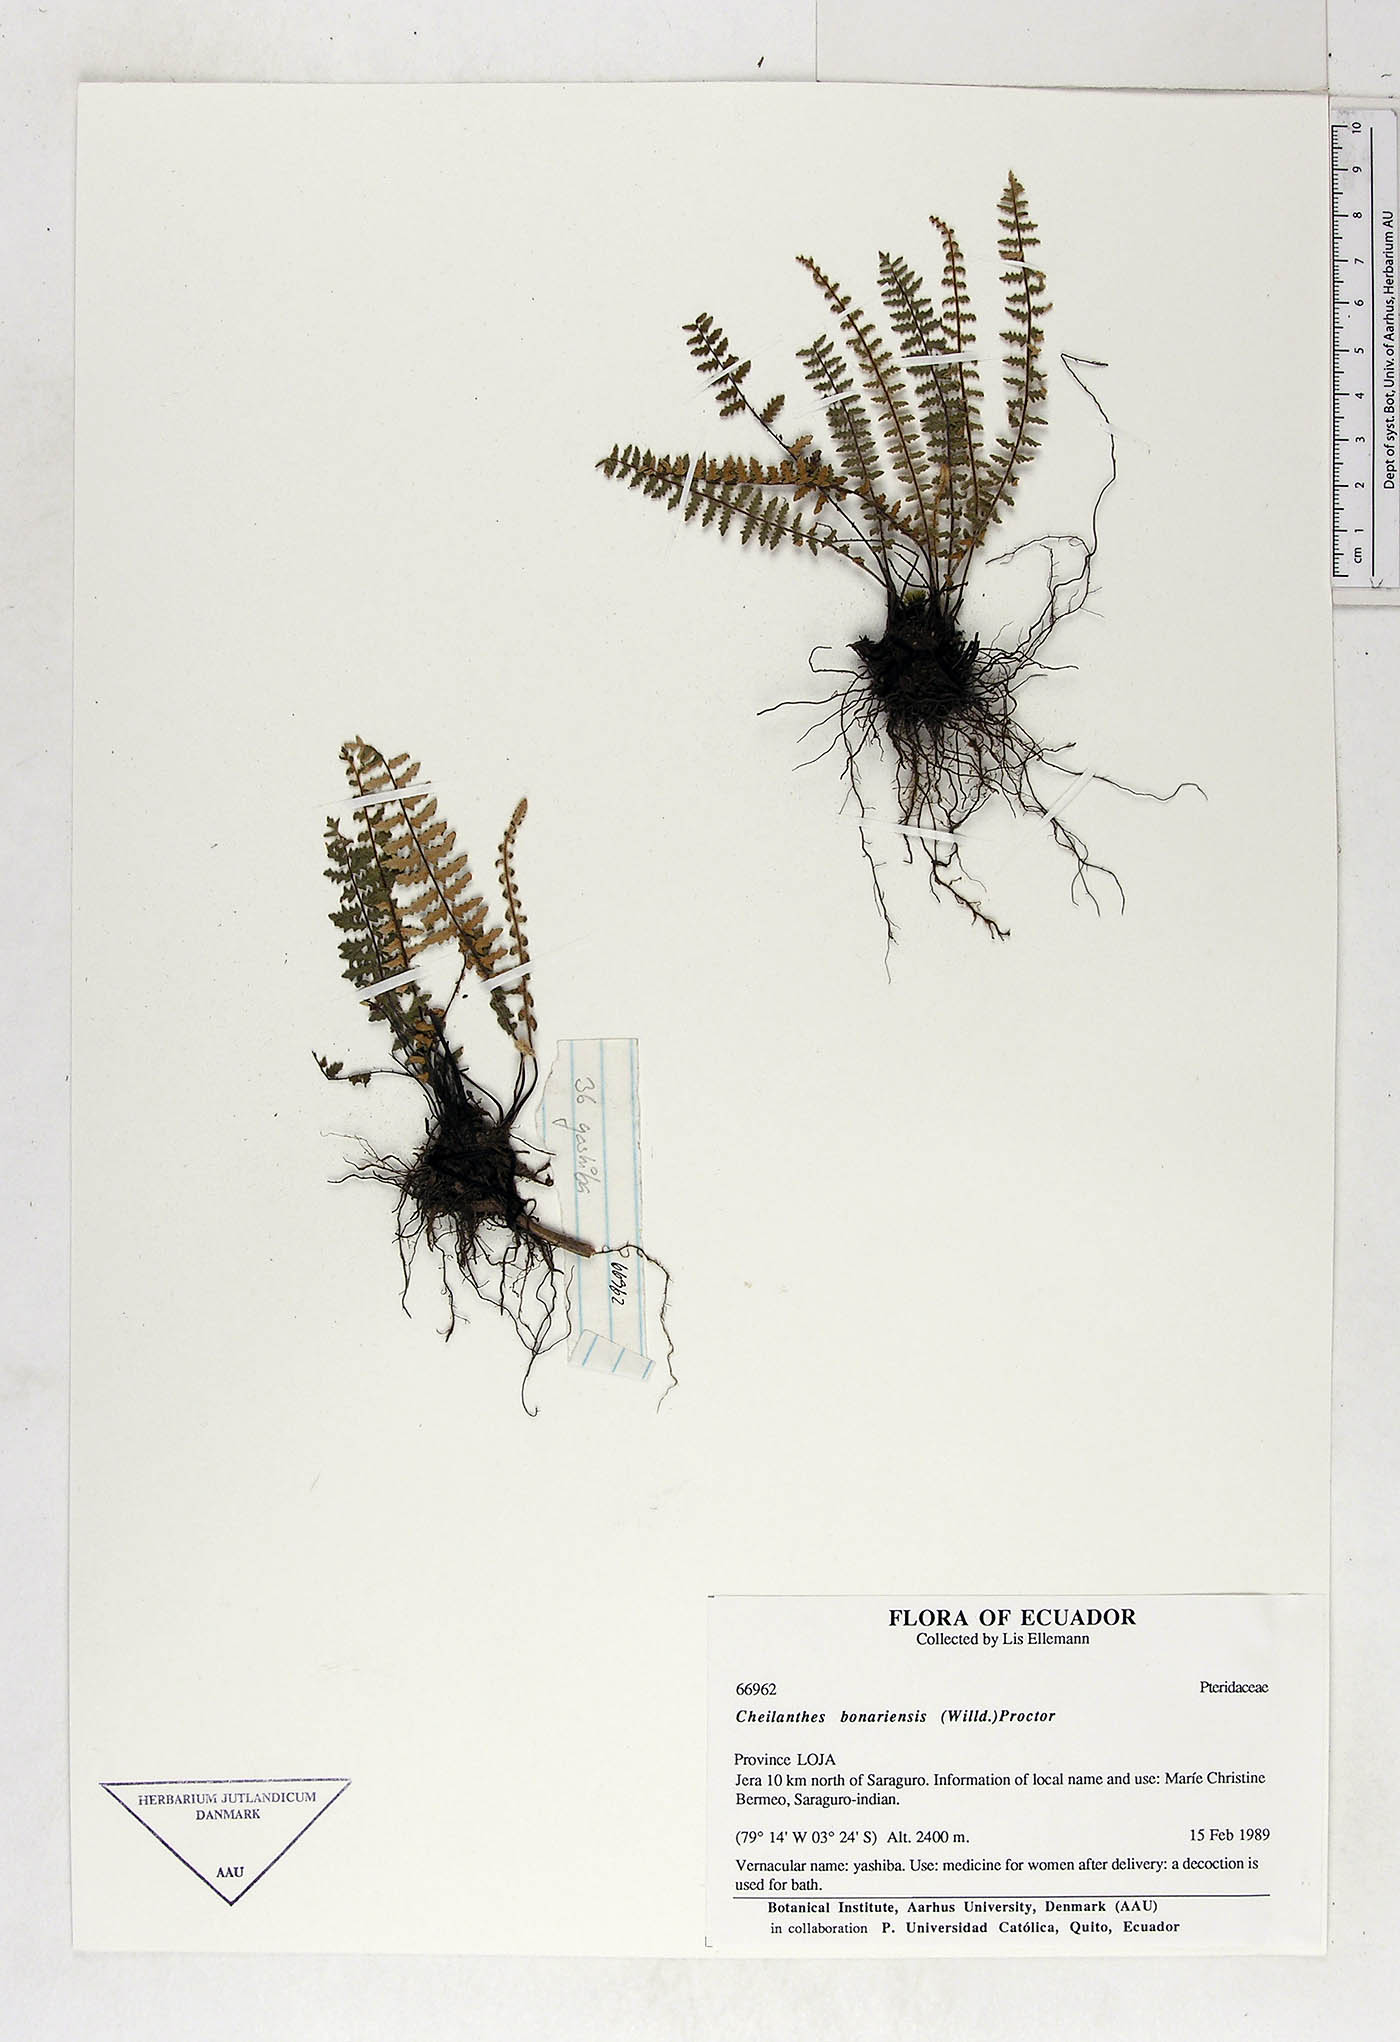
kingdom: Plantae
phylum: Tracheophyta
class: Polypodiopsida
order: Polypodiales
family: Pteridaceae
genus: Myriopteris
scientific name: Myriopteris aurea
